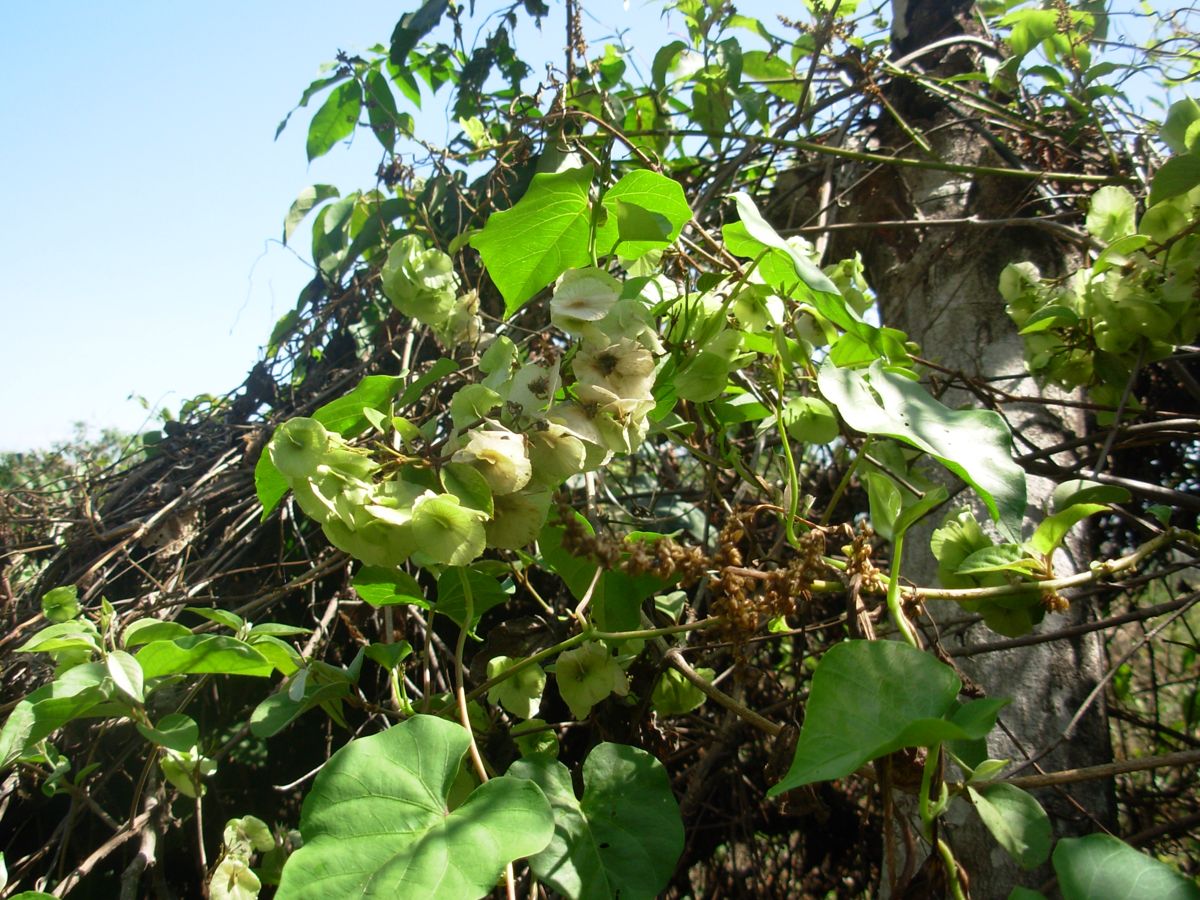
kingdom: Plantae
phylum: Tracheophyta
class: Magnoliopsida
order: Malpighiales
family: Malpighiaceae
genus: Mascagnia
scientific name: Mascagnia tomentosa
